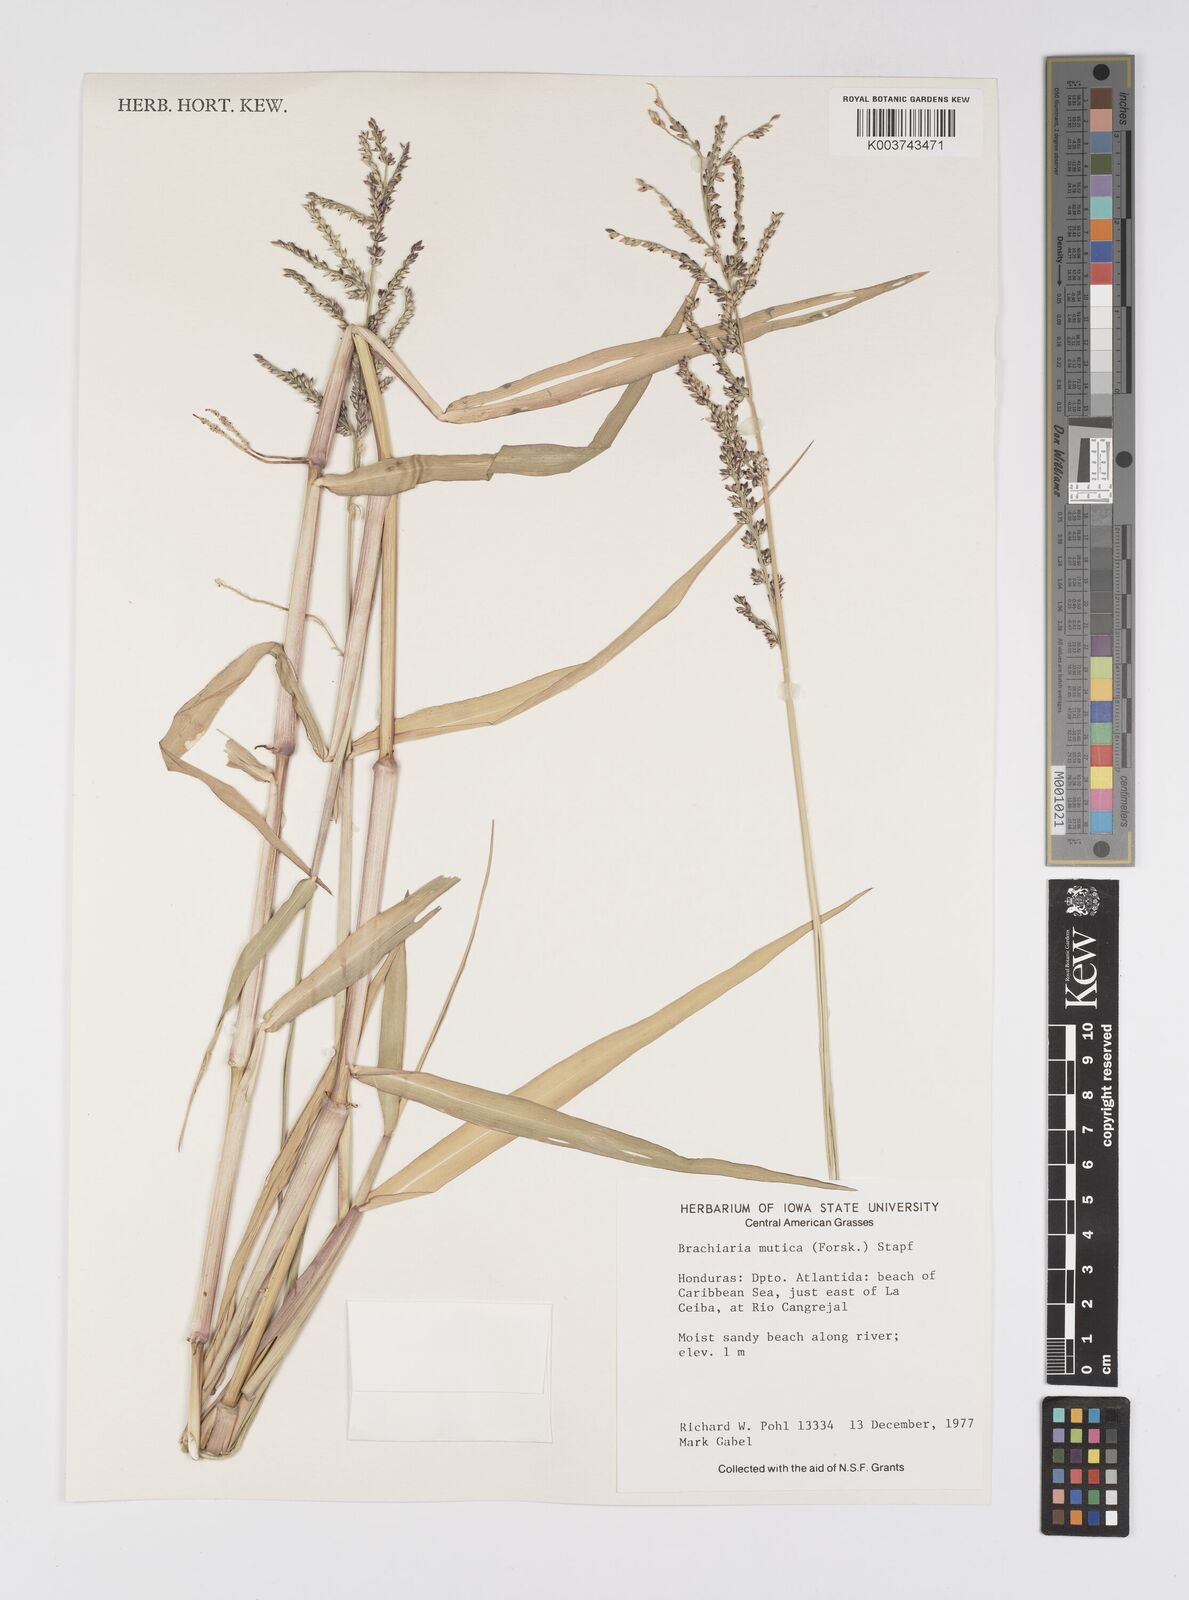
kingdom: Plantae
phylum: Tracheophyta
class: Liliopsida
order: Poales
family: Poaceae
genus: Urochloa
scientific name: Urochloa mutica
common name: Para grass
